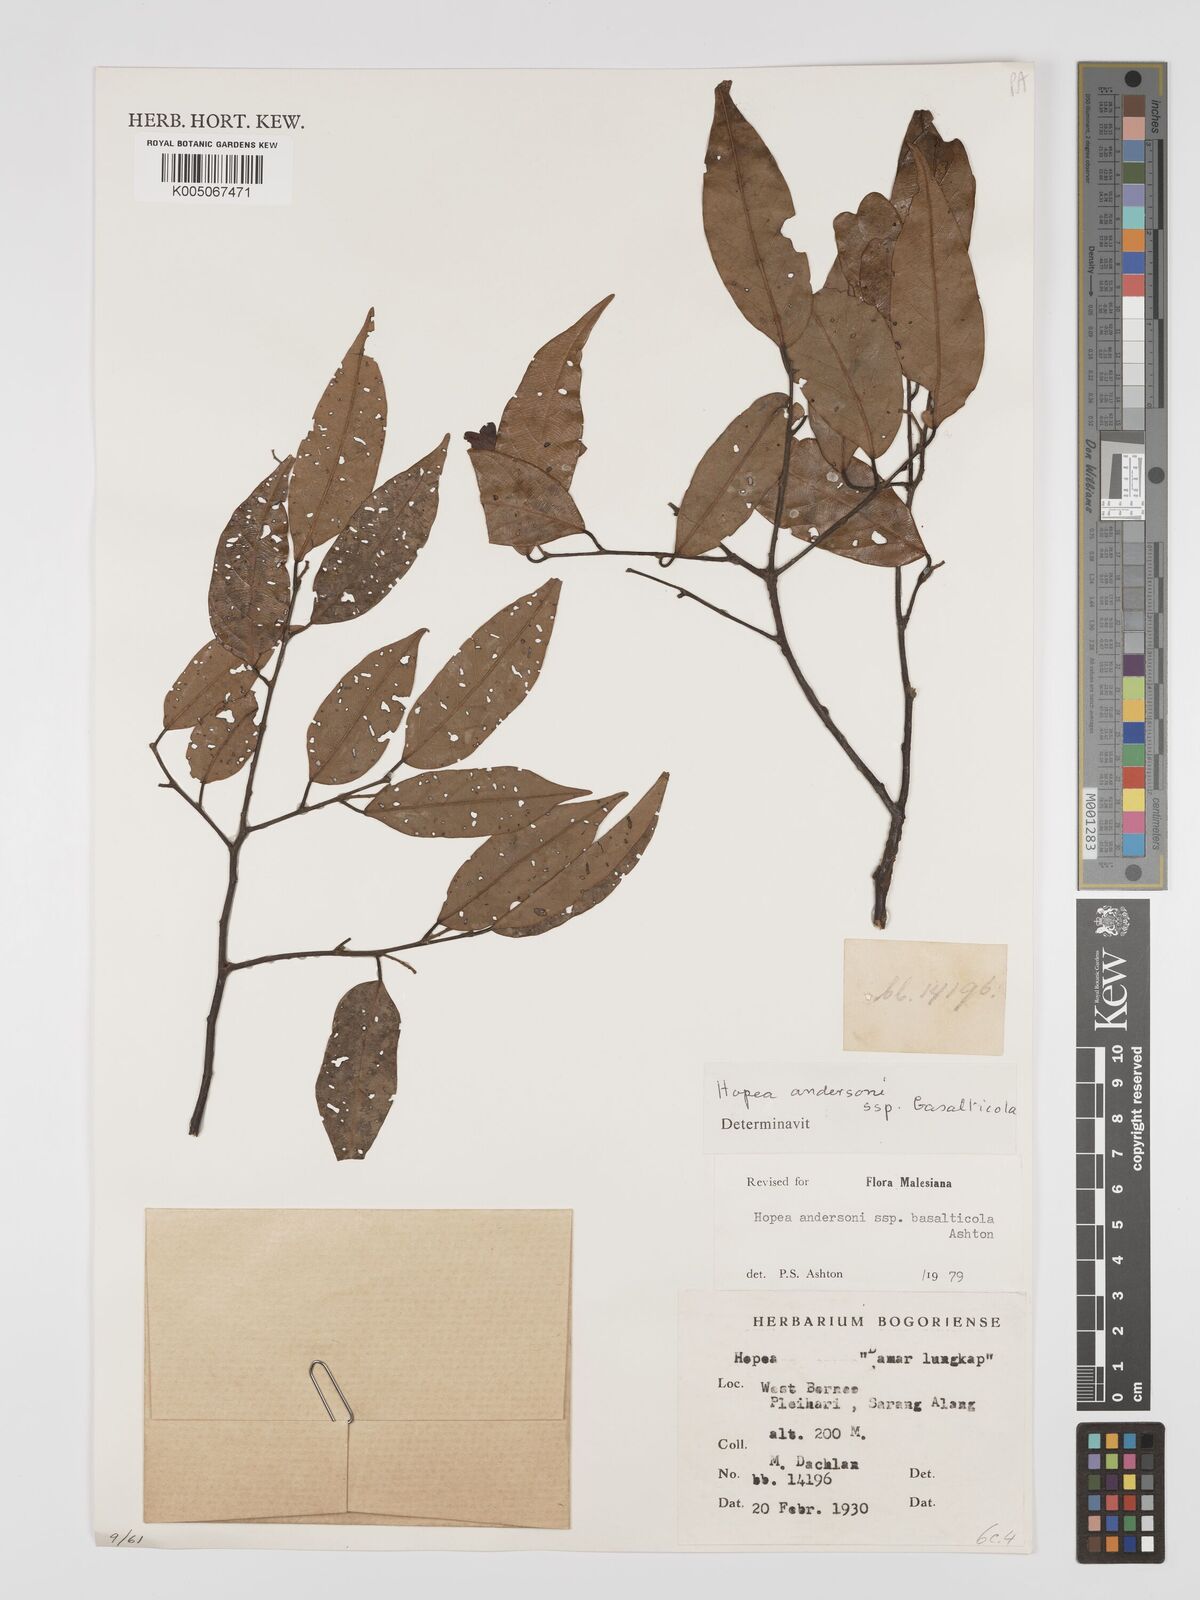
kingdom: Plantae
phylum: Tracheophyta
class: Magnoliopsida
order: Malvales
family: Dipterocarpaceae
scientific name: Dipterocarpaceae
